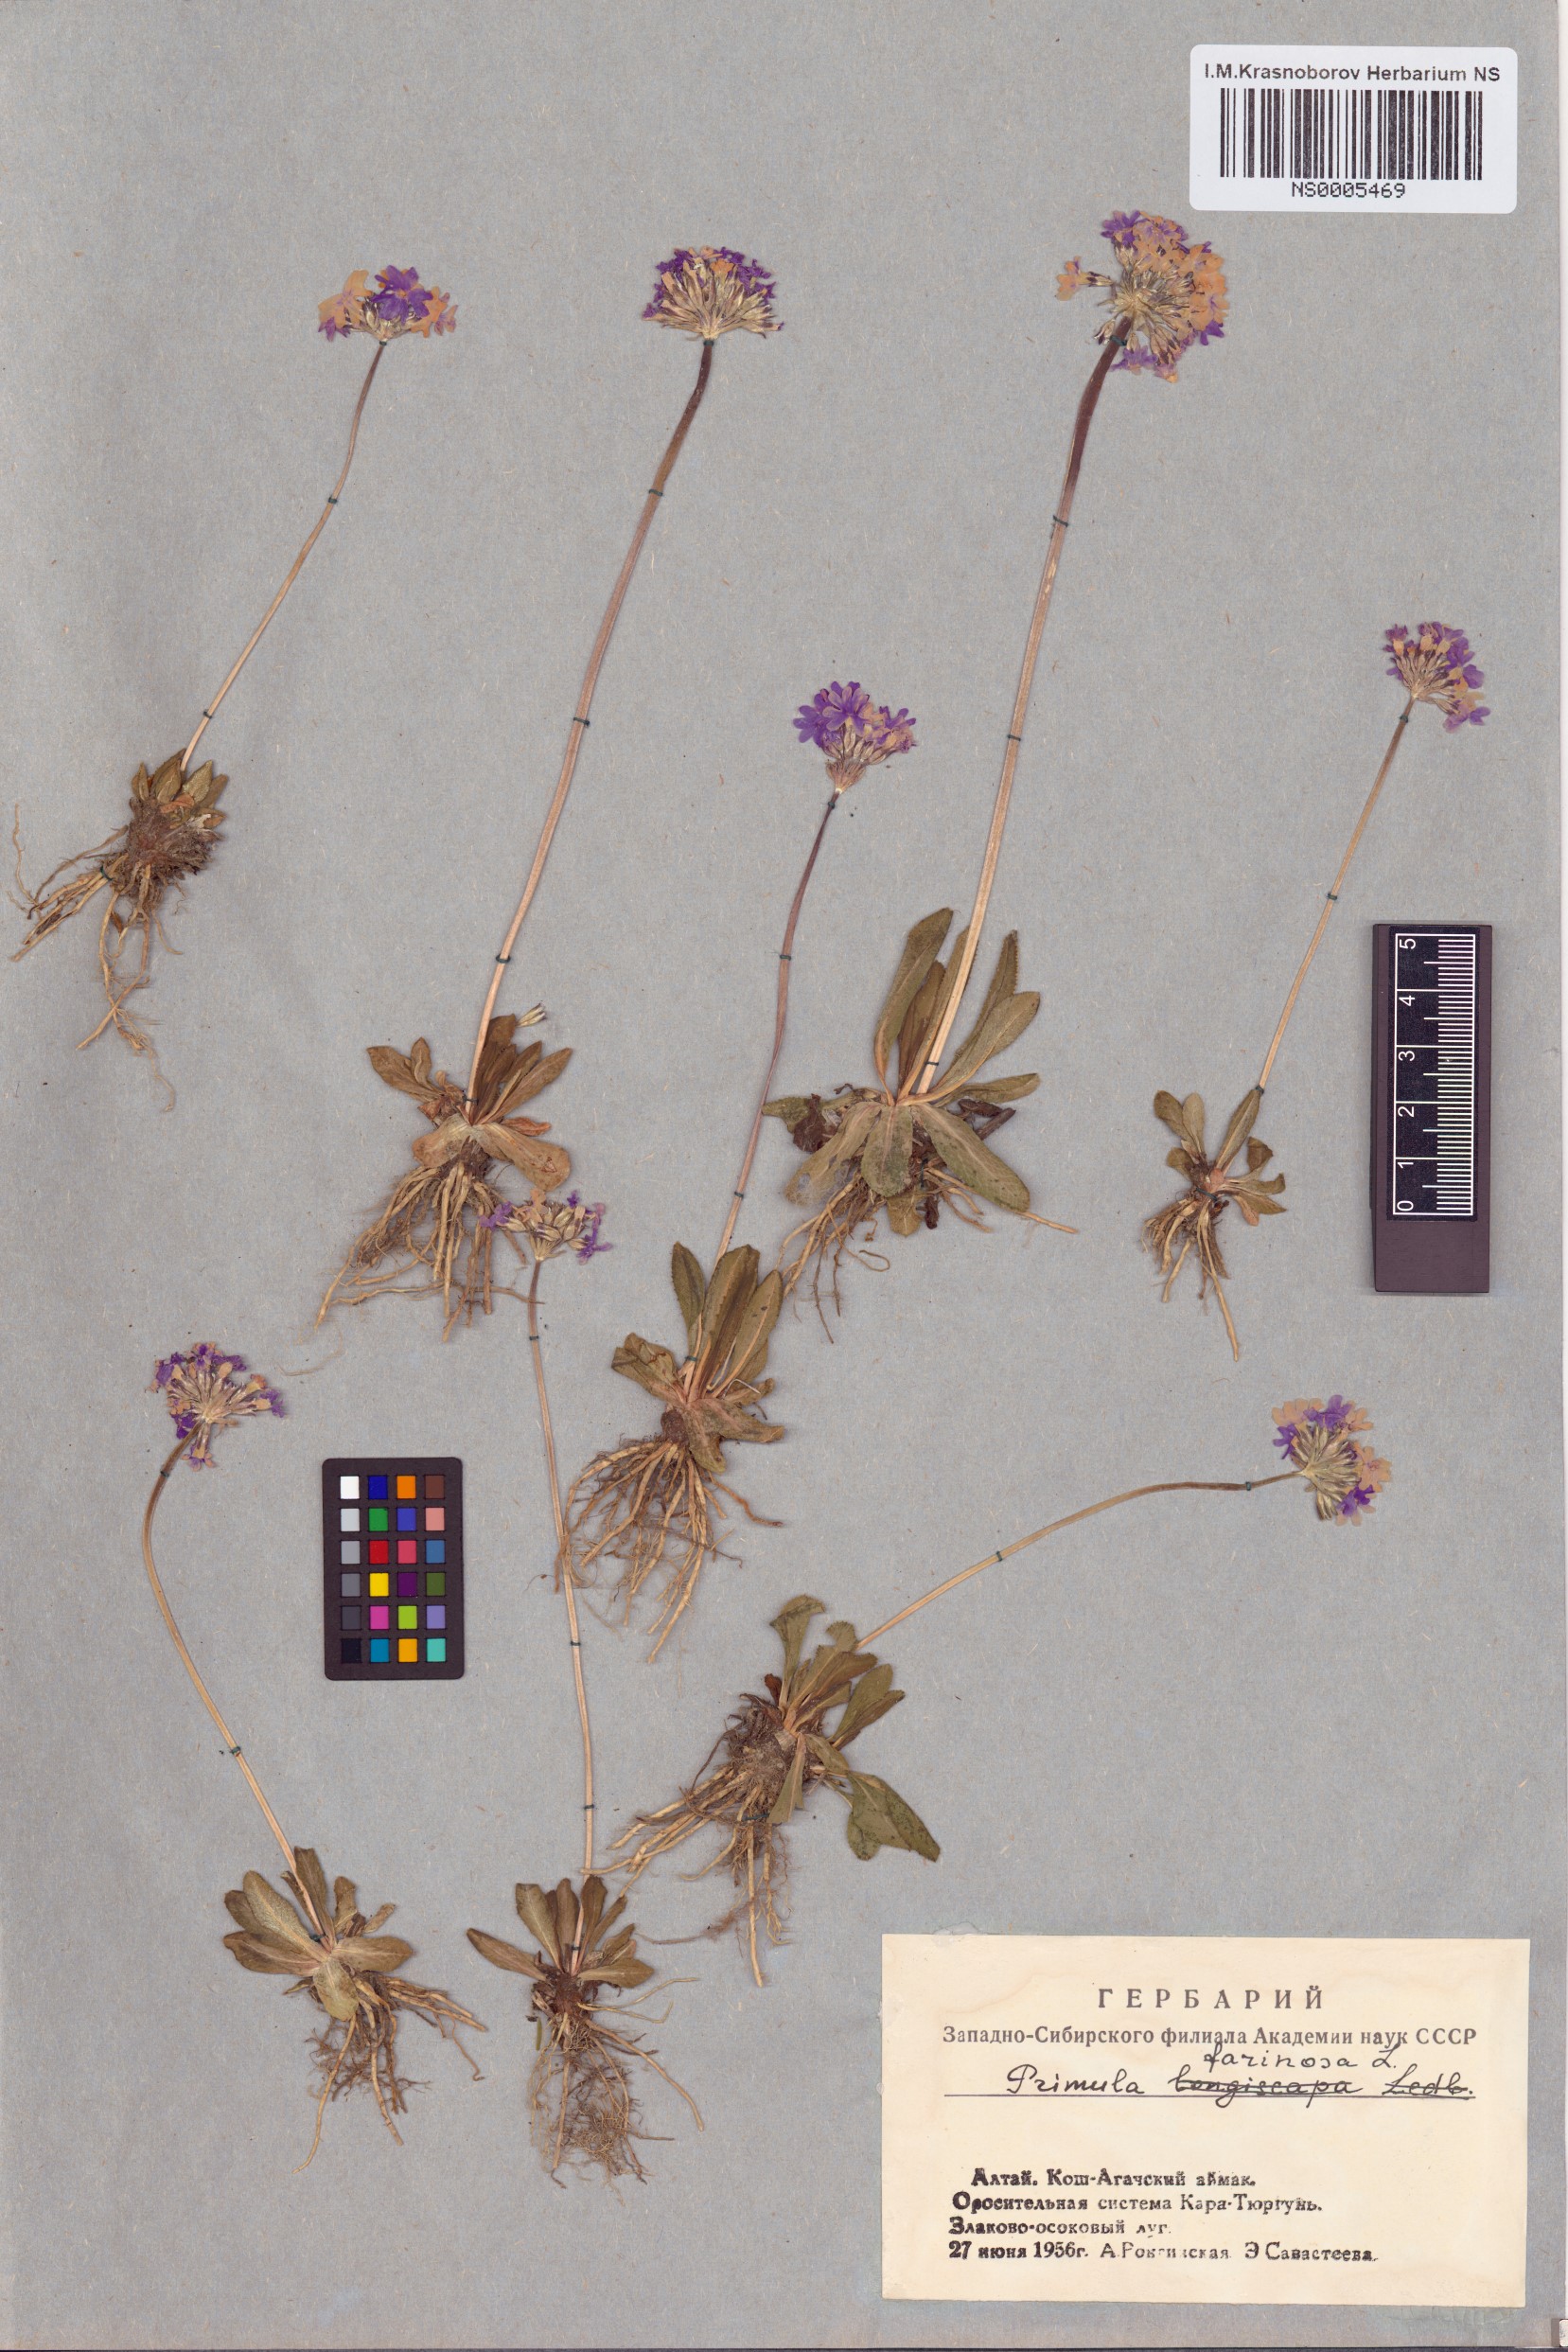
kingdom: Plantae
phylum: Tracheophyta
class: Magnoliopsida
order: Ericales
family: Primulaceae
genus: Primula
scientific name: Primula farinosa
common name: Bird's-eye primrose
